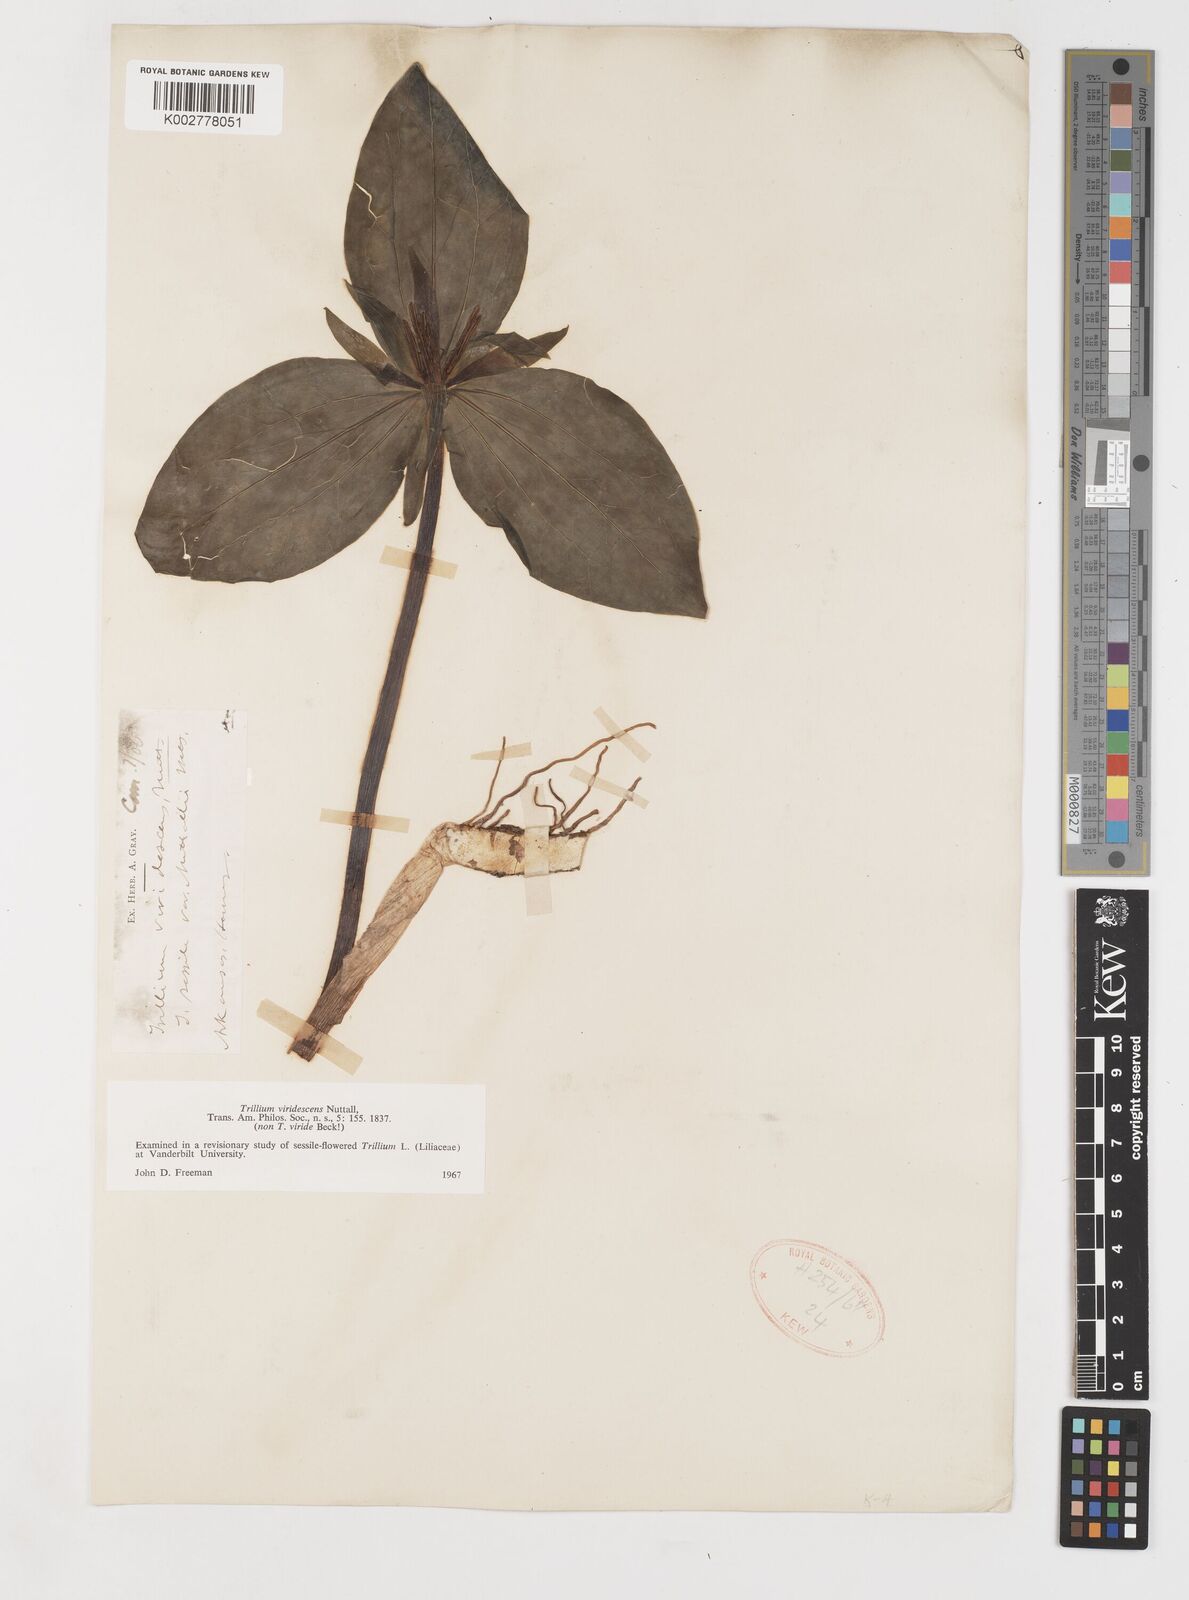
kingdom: Plantae
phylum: Tracheophyta
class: Liliopsida
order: Liliales
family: Melanthiaceae
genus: Trillium
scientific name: Trillium viridescens
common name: Ozark green trillium
